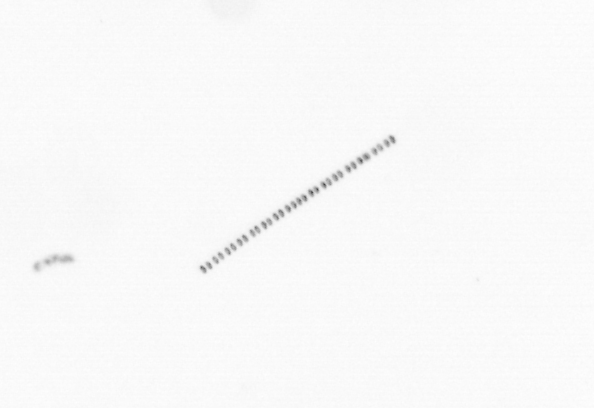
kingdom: Chromista
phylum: Ochrophyta
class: Bacillariophyceae
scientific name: Bacillariophyceae
